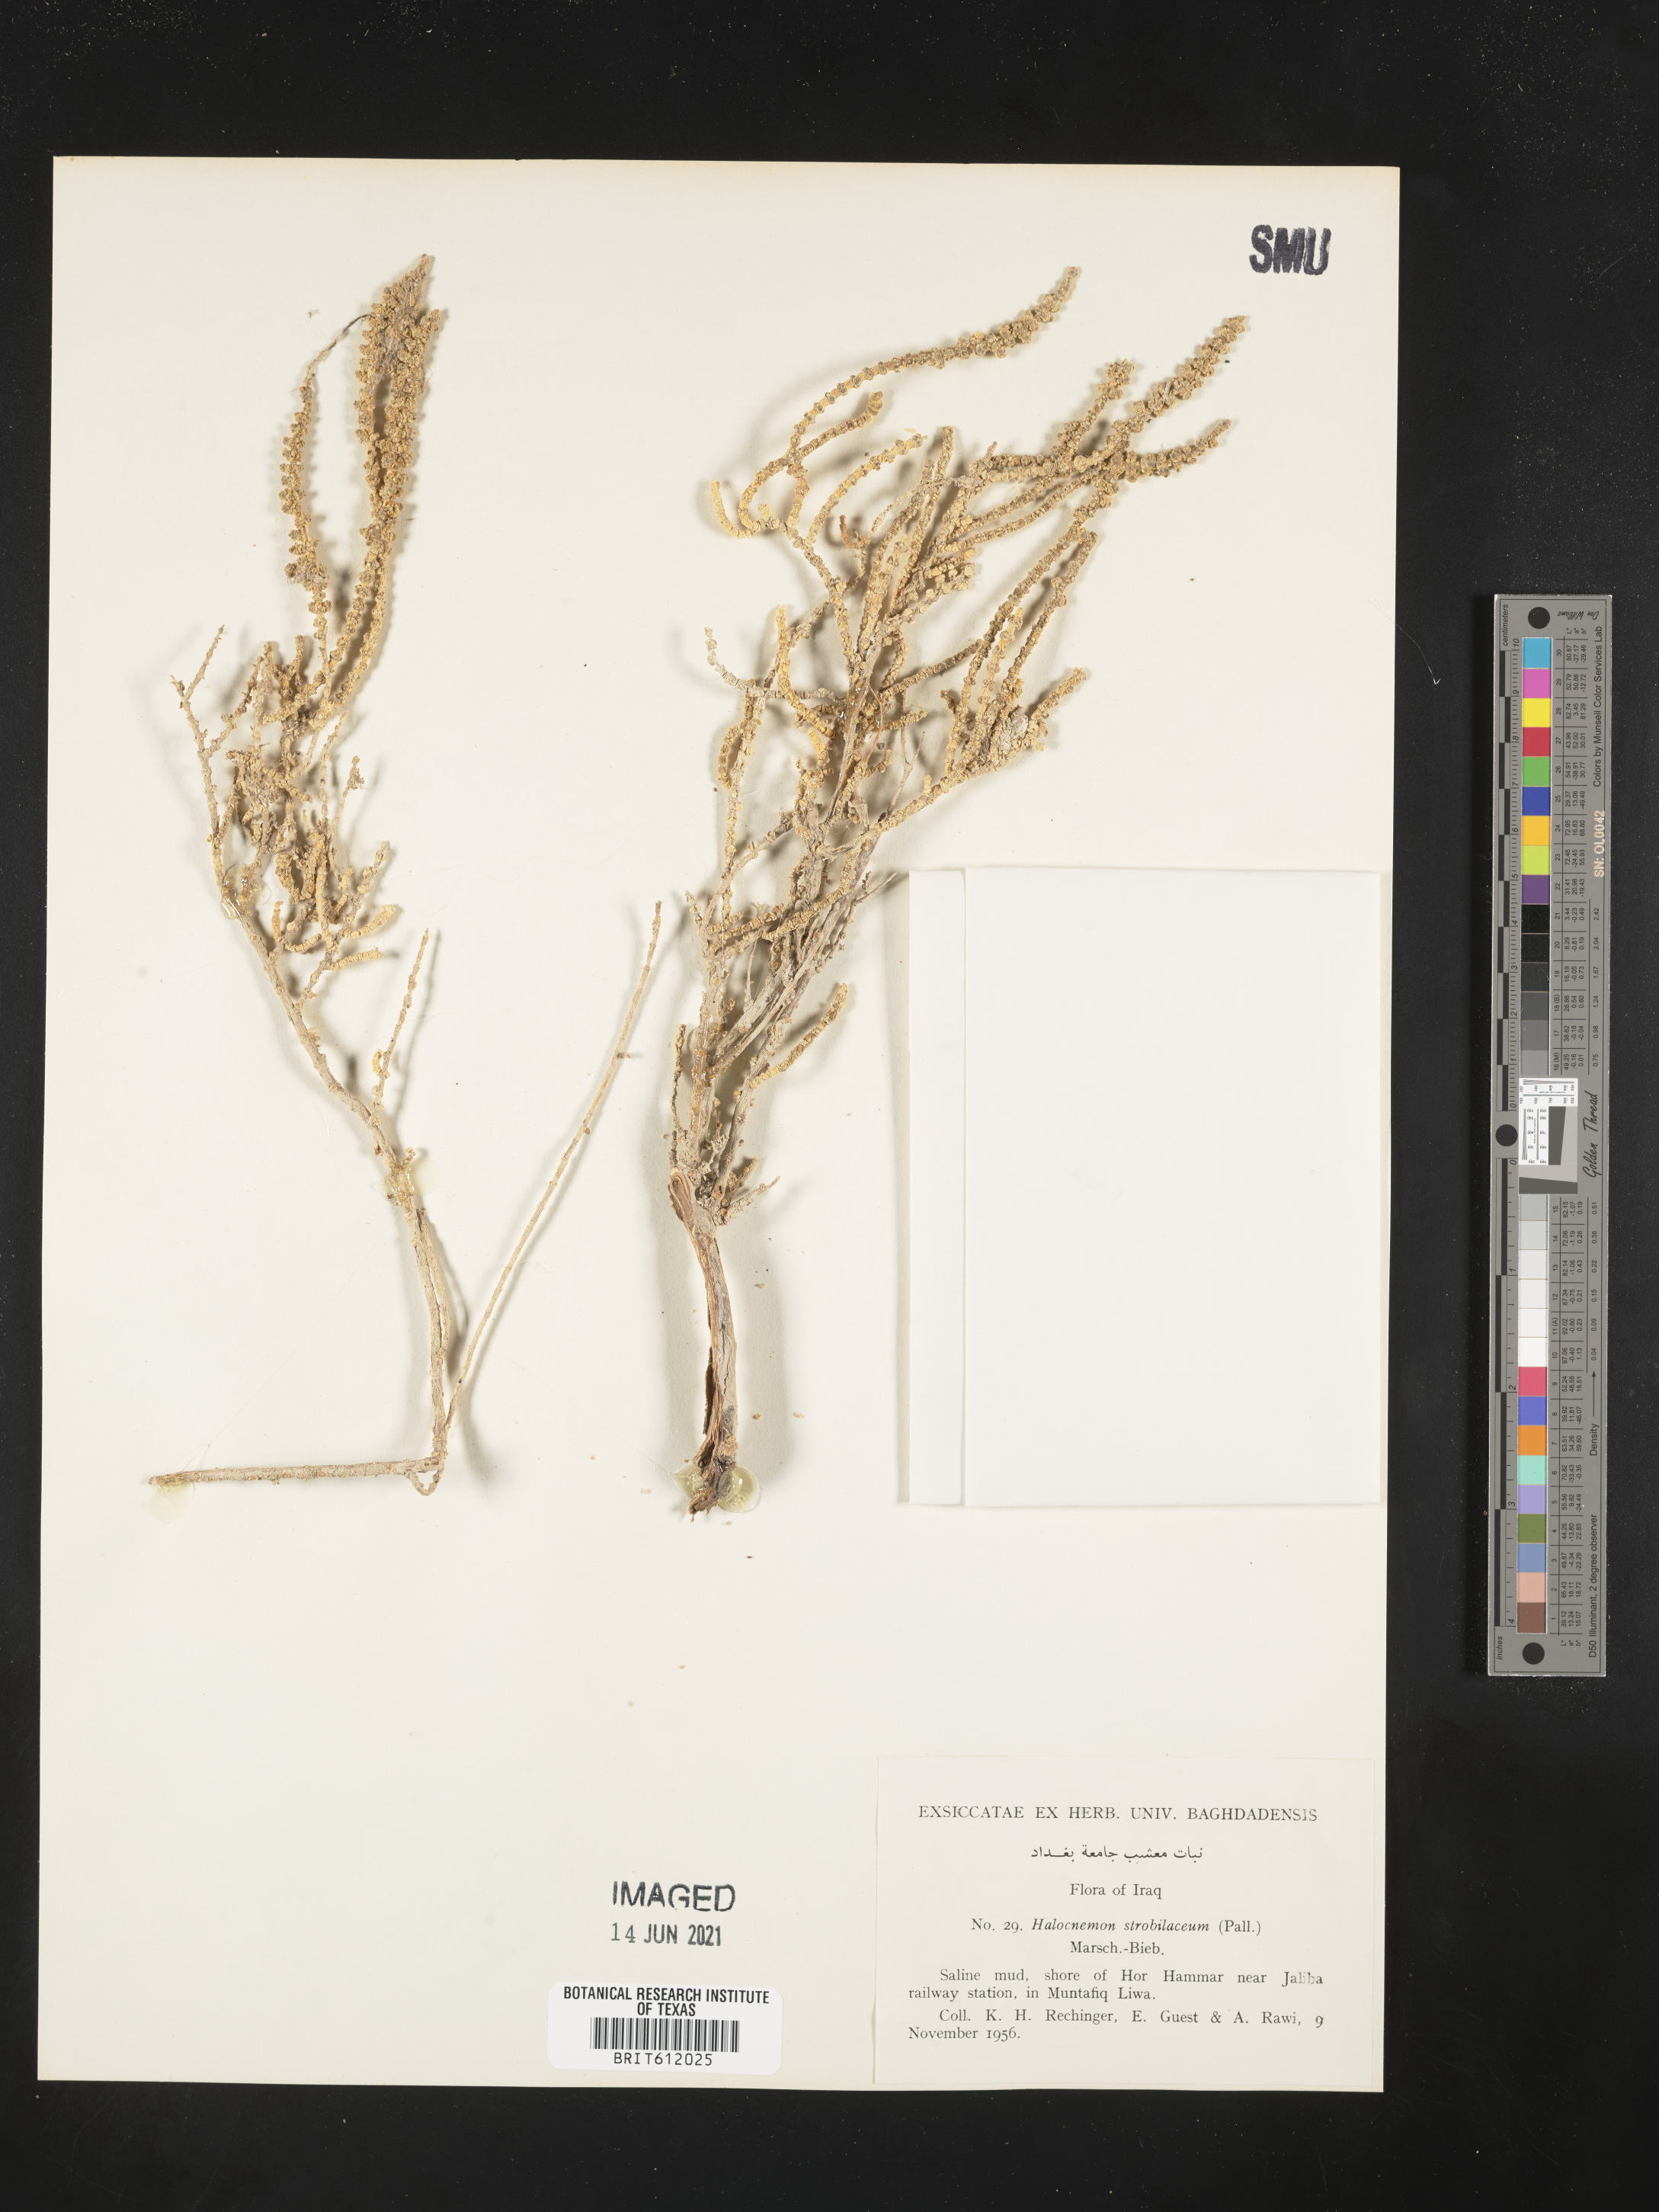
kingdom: Plantae
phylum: Tracheophyta
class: Magnoliopsida
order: Caryophyllales
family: Amaranthaceae
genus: Halocnemum
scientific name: Halocnemum strobilaceum
